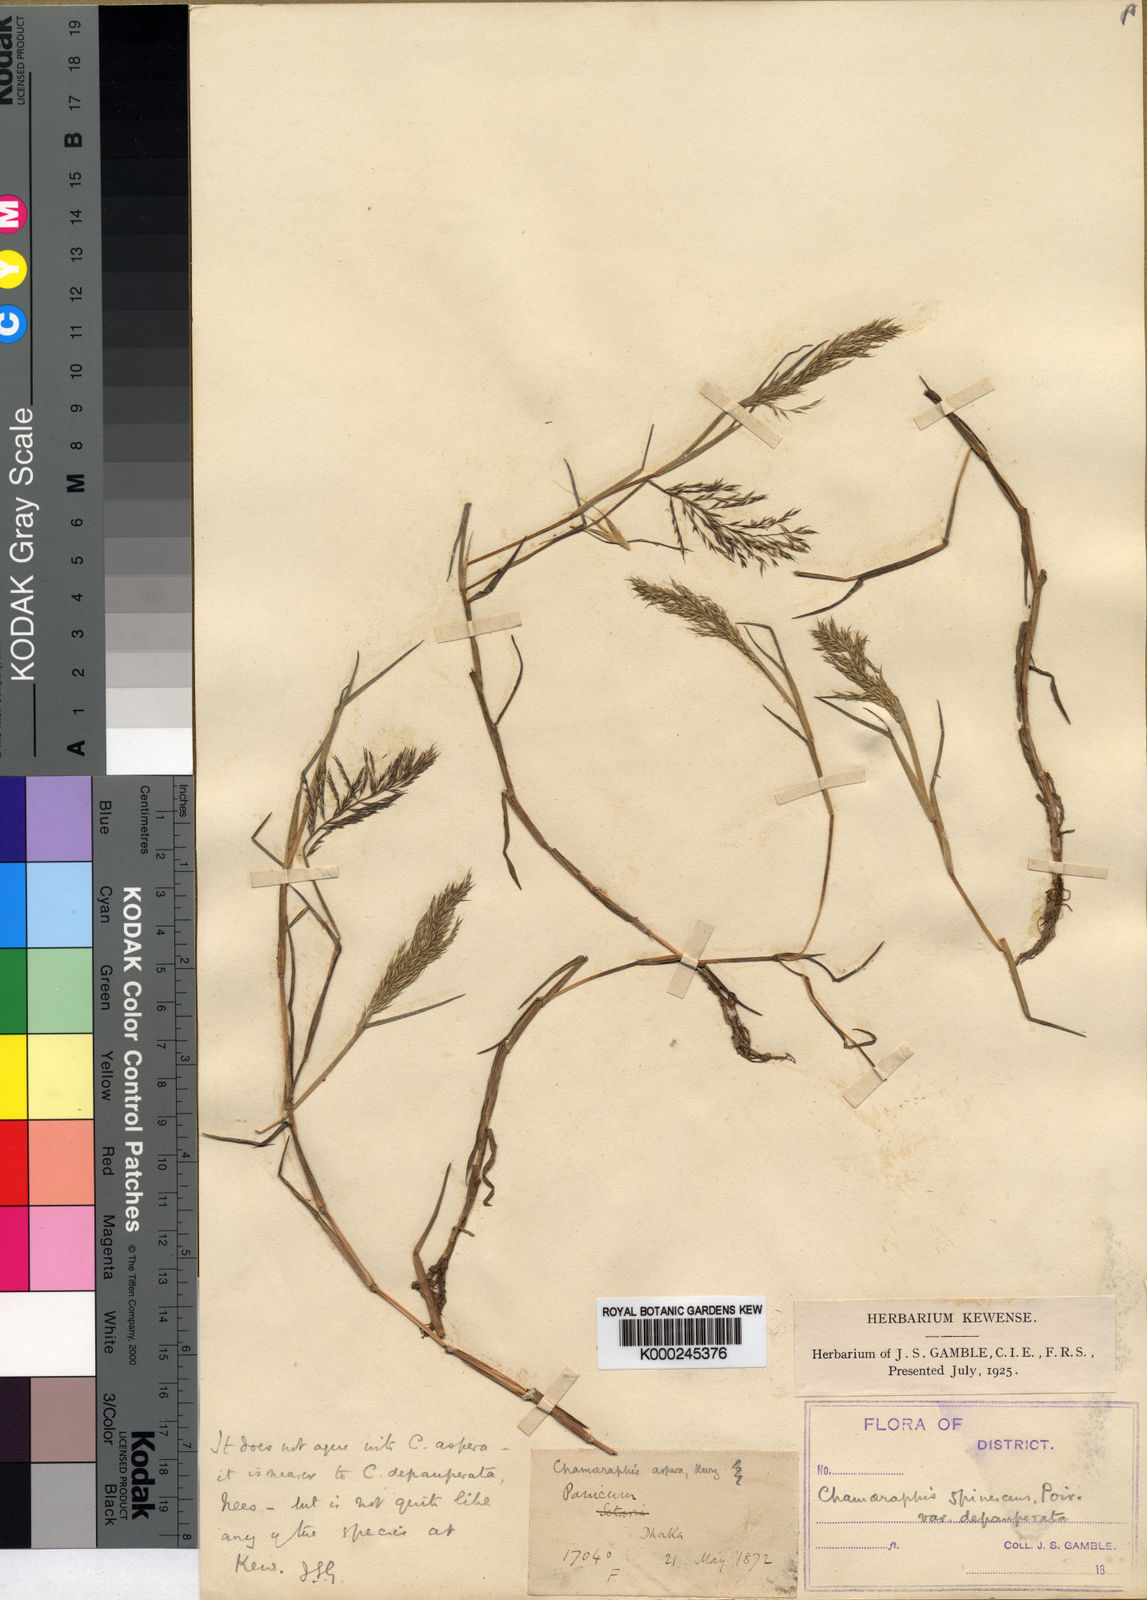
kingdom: Plantae
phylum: Tracheophyta
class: Liliopsida
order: Poales
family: Poaceae
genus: Pseudoraphis
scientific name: Pseudoraphis minuta
